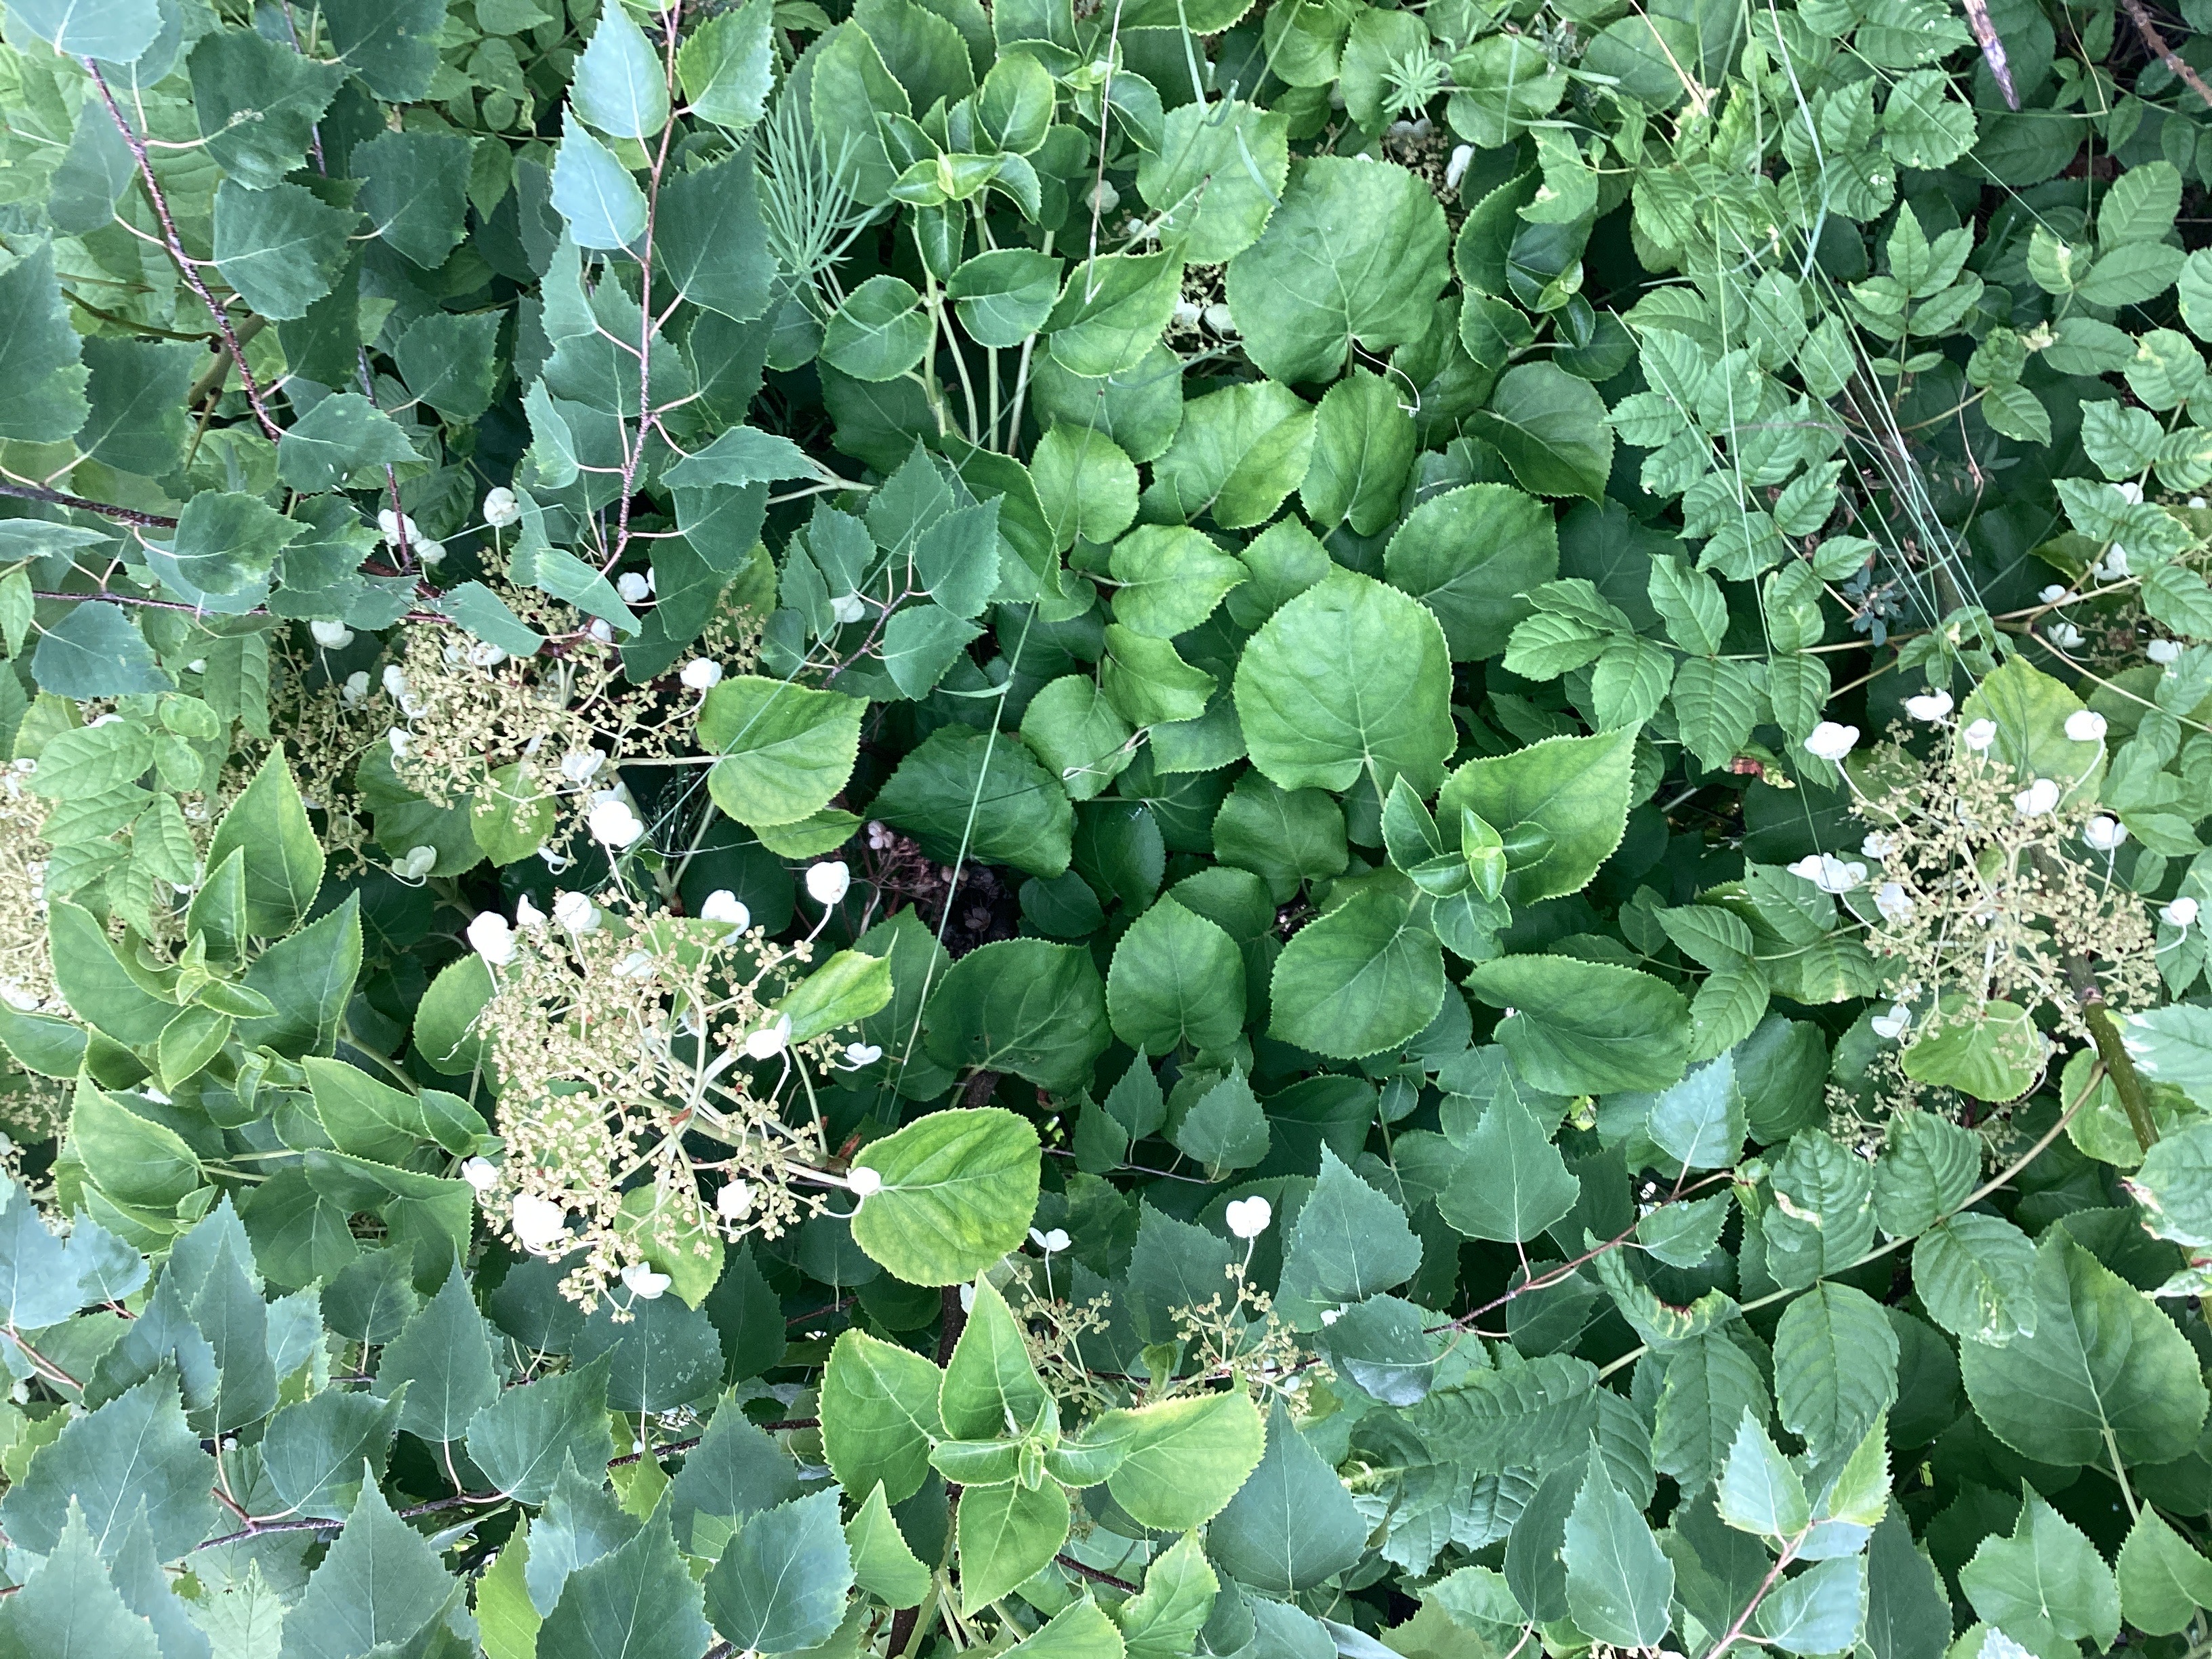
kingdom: Plantae
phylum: Tracheophyta
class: Magnoliopsida
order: Cornales
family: Hydrangeaceae
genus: Hydrangea
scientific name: Hydrangea petiolaris
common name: klatrehortensia
